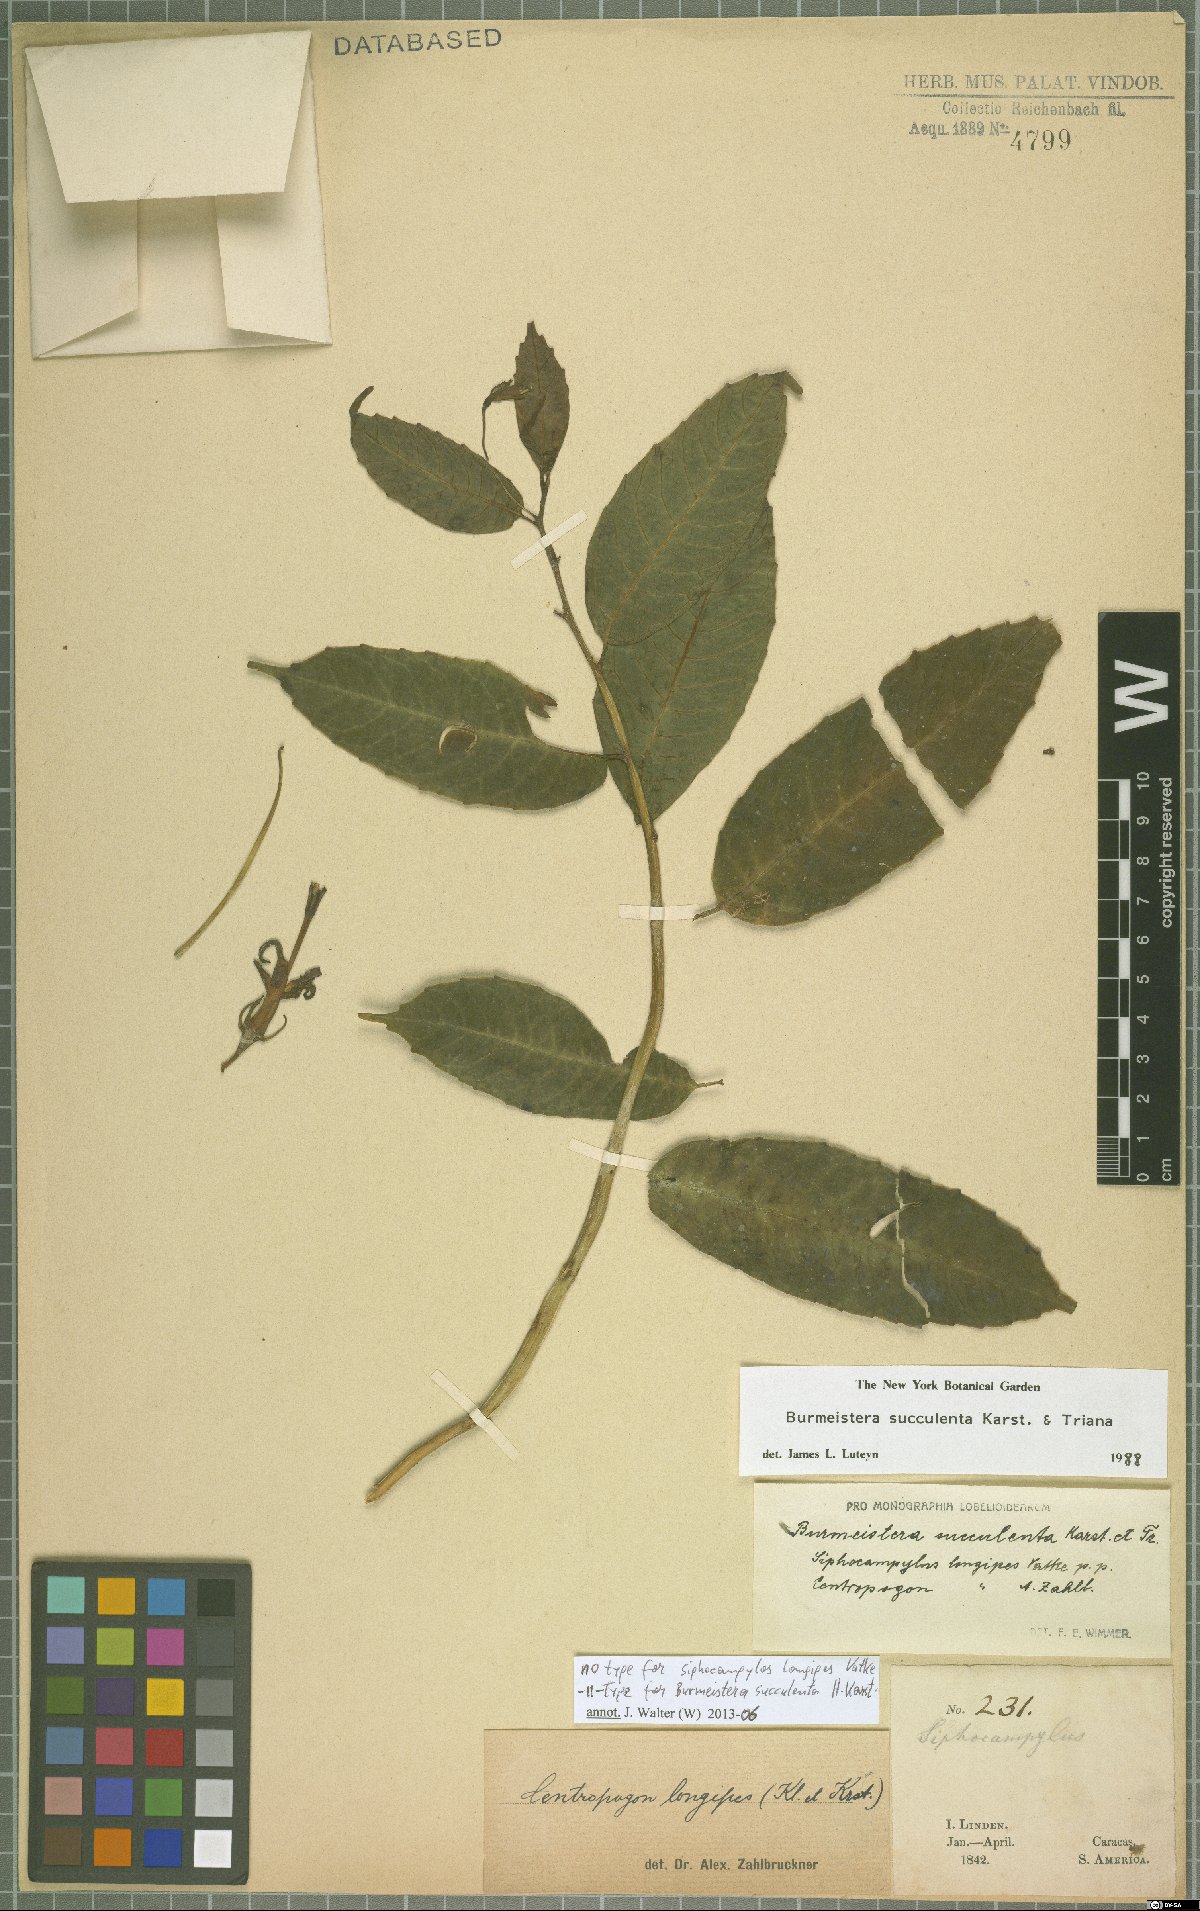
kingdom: Plantae
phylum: Tracheophyta
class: Magnoliopsida
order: Asterales
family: Campanulaceae
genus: Burmeistera
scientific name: Burmeistera succulenta
